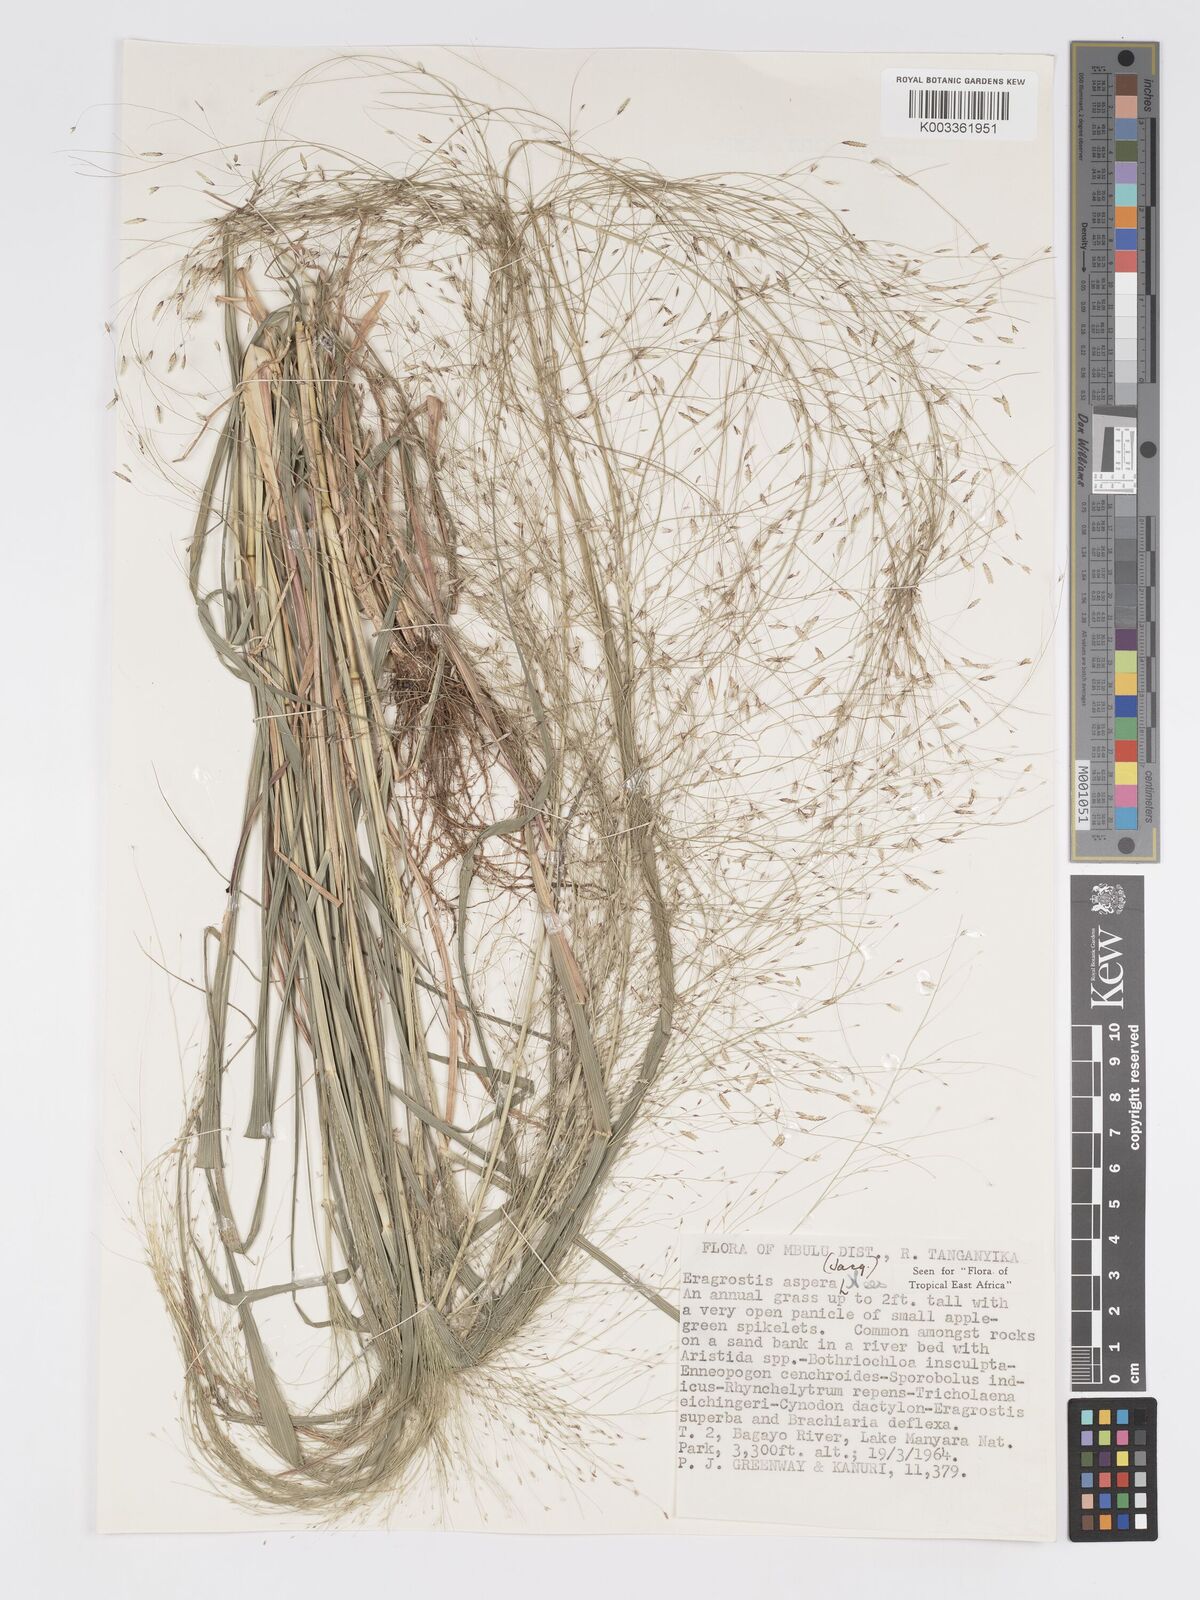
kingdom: Plantae
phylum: Tracheophyta
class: Liliopsida
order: Poales
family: Poaceae
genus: Eragrostis
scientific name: Eragrostis aspera
